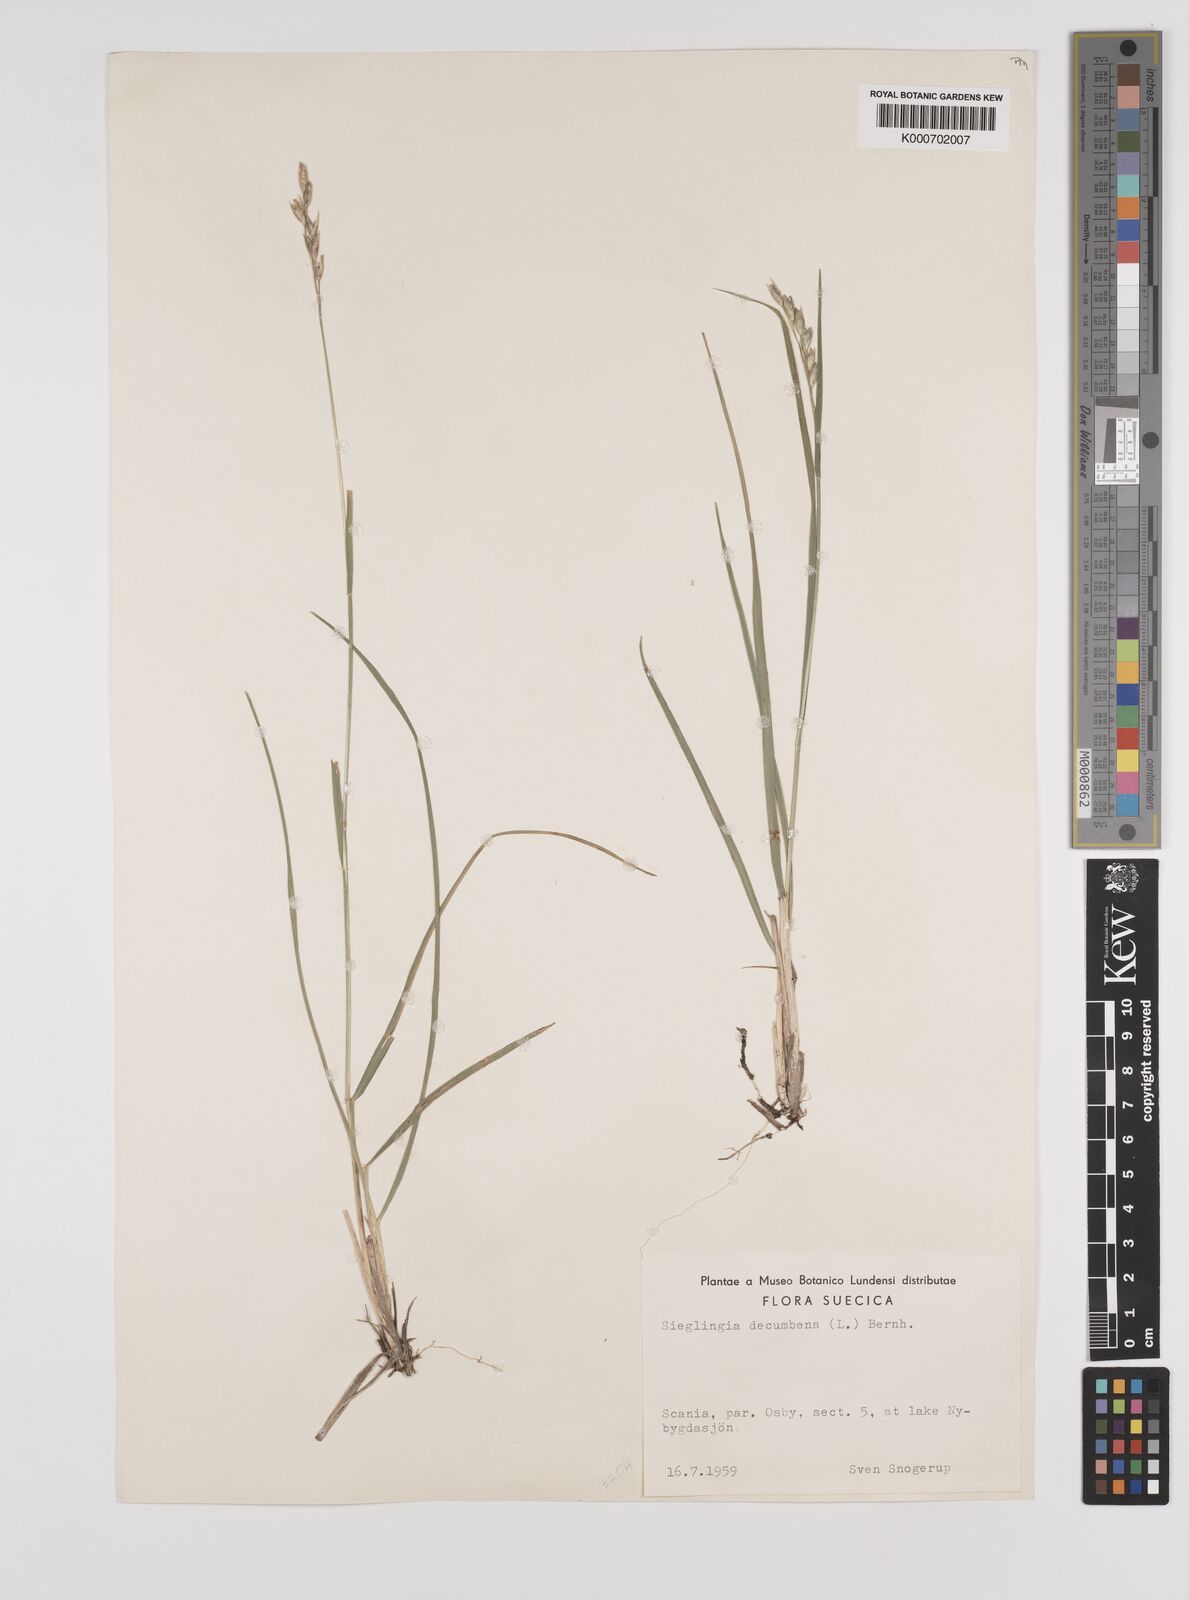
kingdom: Plantae
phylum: Tracheophyta
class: Liliopsida
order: Poales
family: Poaceae
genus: Danthonia
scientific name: Danthonia decumbens
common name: Common heathgrass
